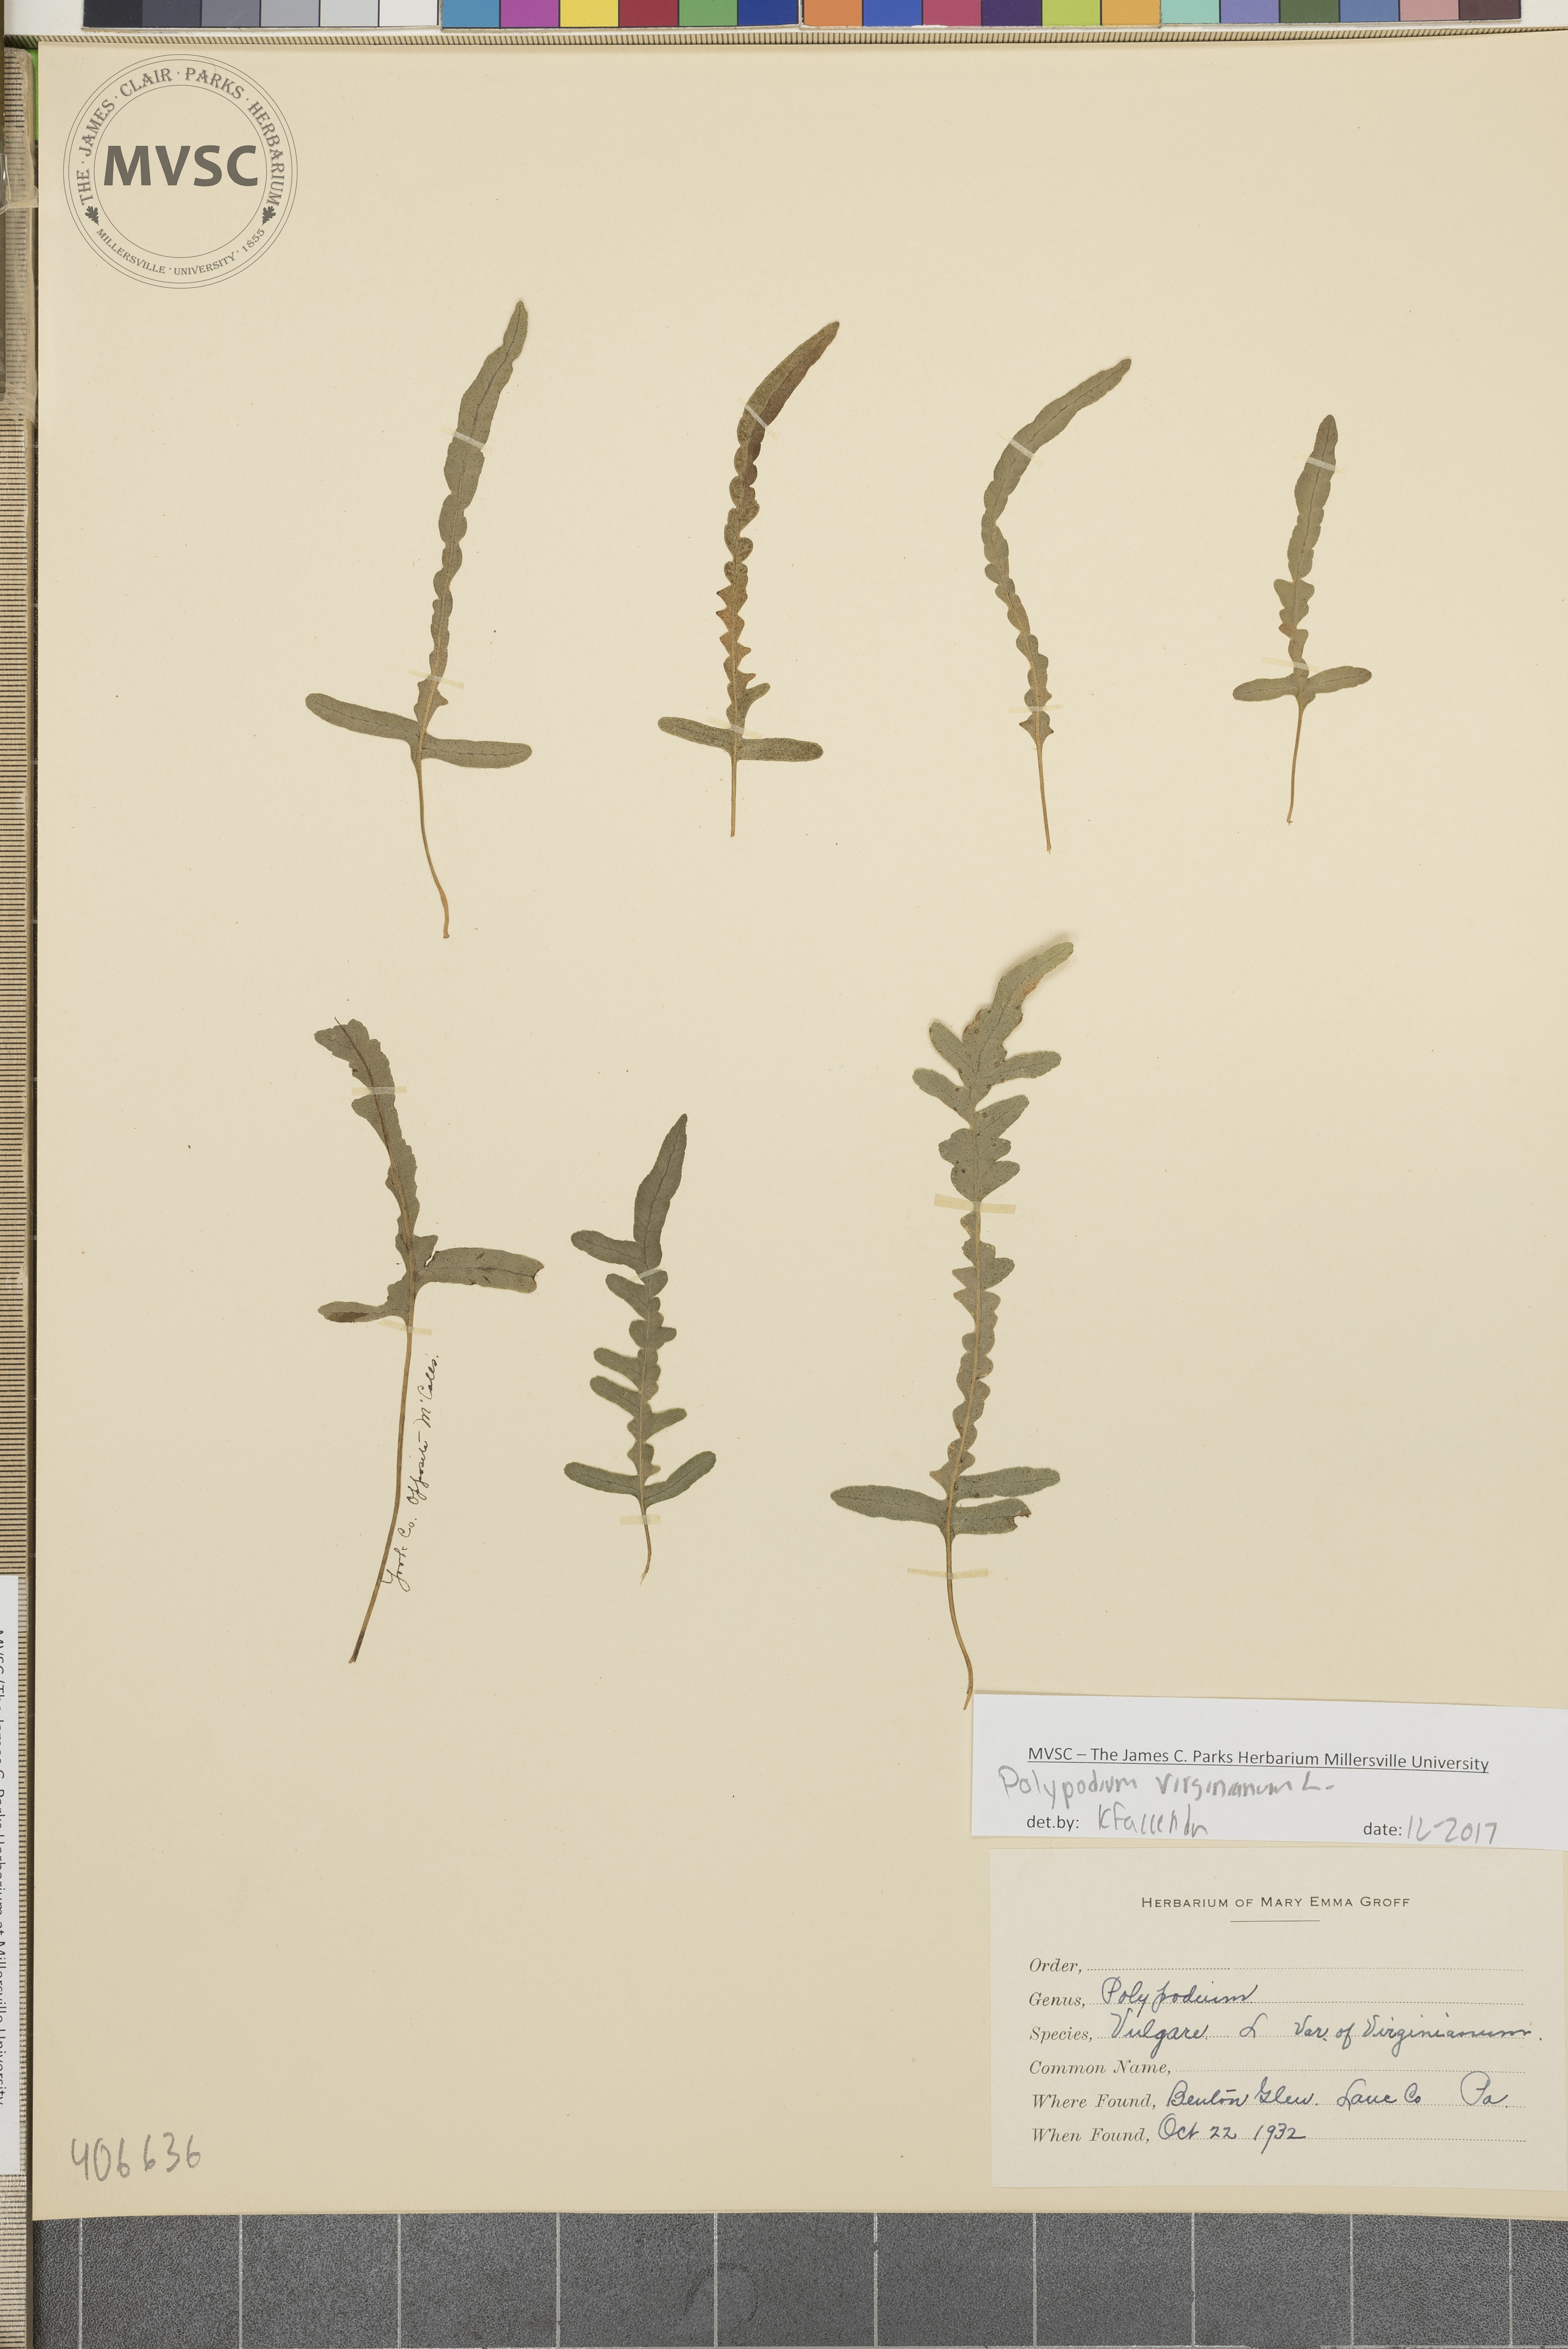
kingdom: Plantae
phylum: Tracheophyta
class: Polypodiopsida
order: Polypodiales
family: Polypodiaceae
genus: Polypodium
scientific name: Polypodium virginianum
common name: American wall fern
